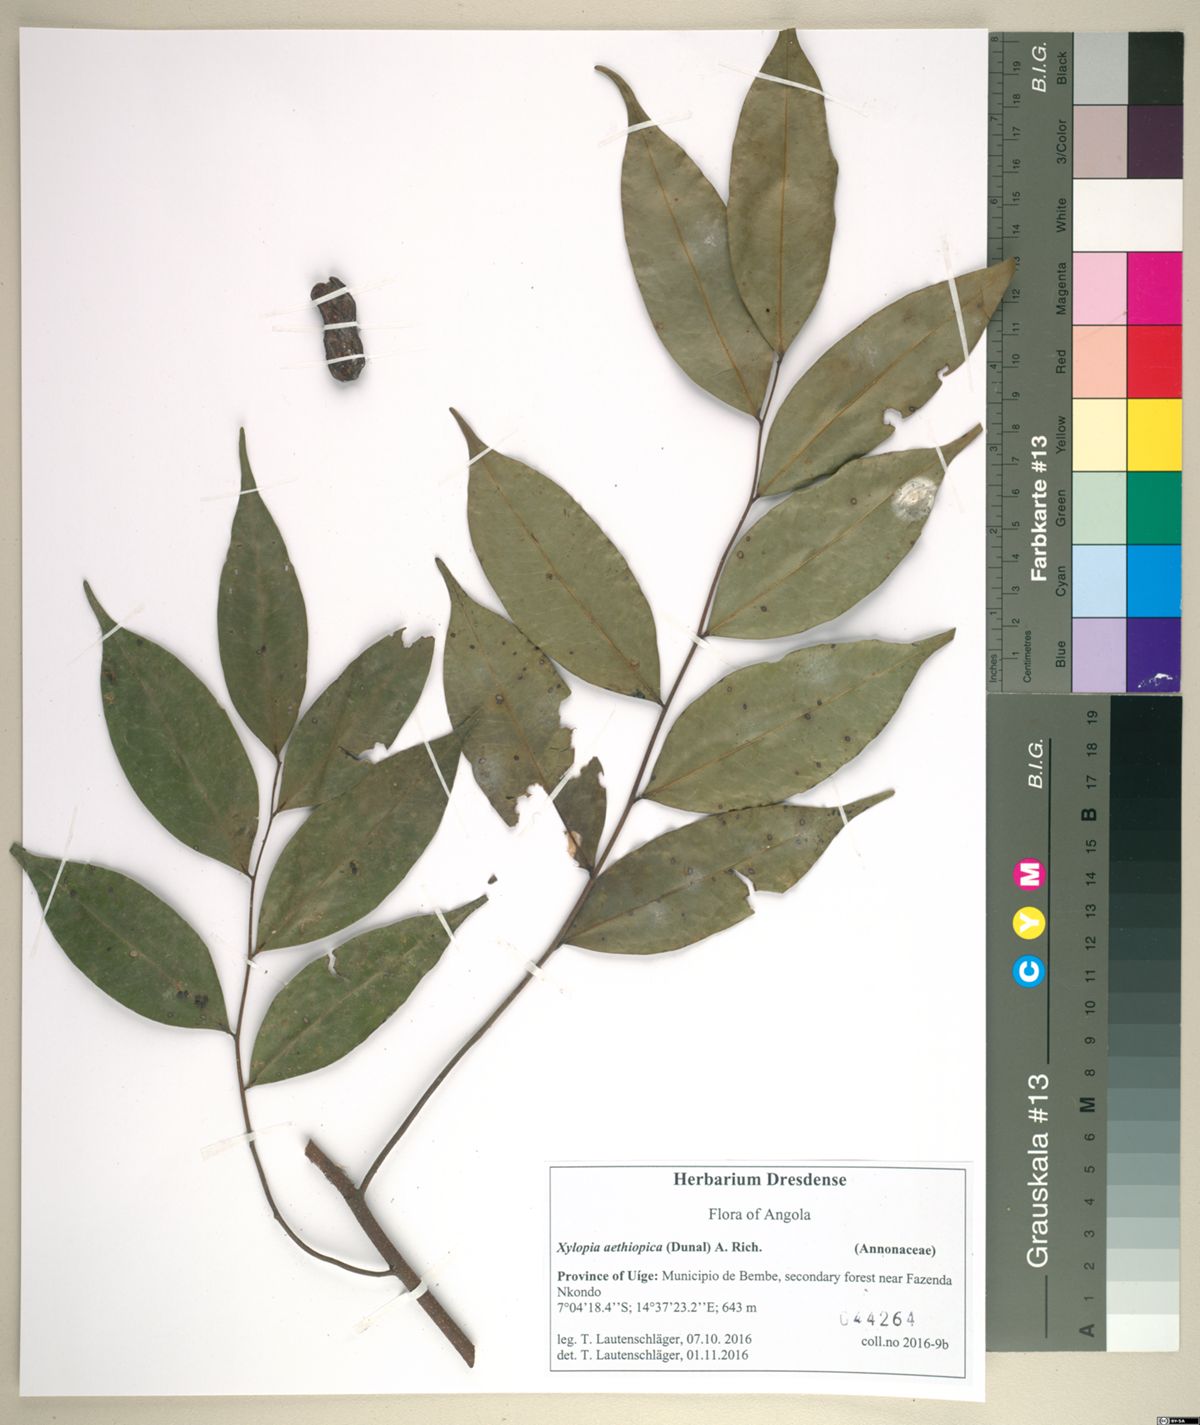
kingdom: Plantae
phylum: Tracheophyta
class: Magnoliopsida
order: Magnoliales
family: Annonaceae
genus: Xylopia
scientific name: Xylopia aethiopica
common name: Ethiopian-pepper
